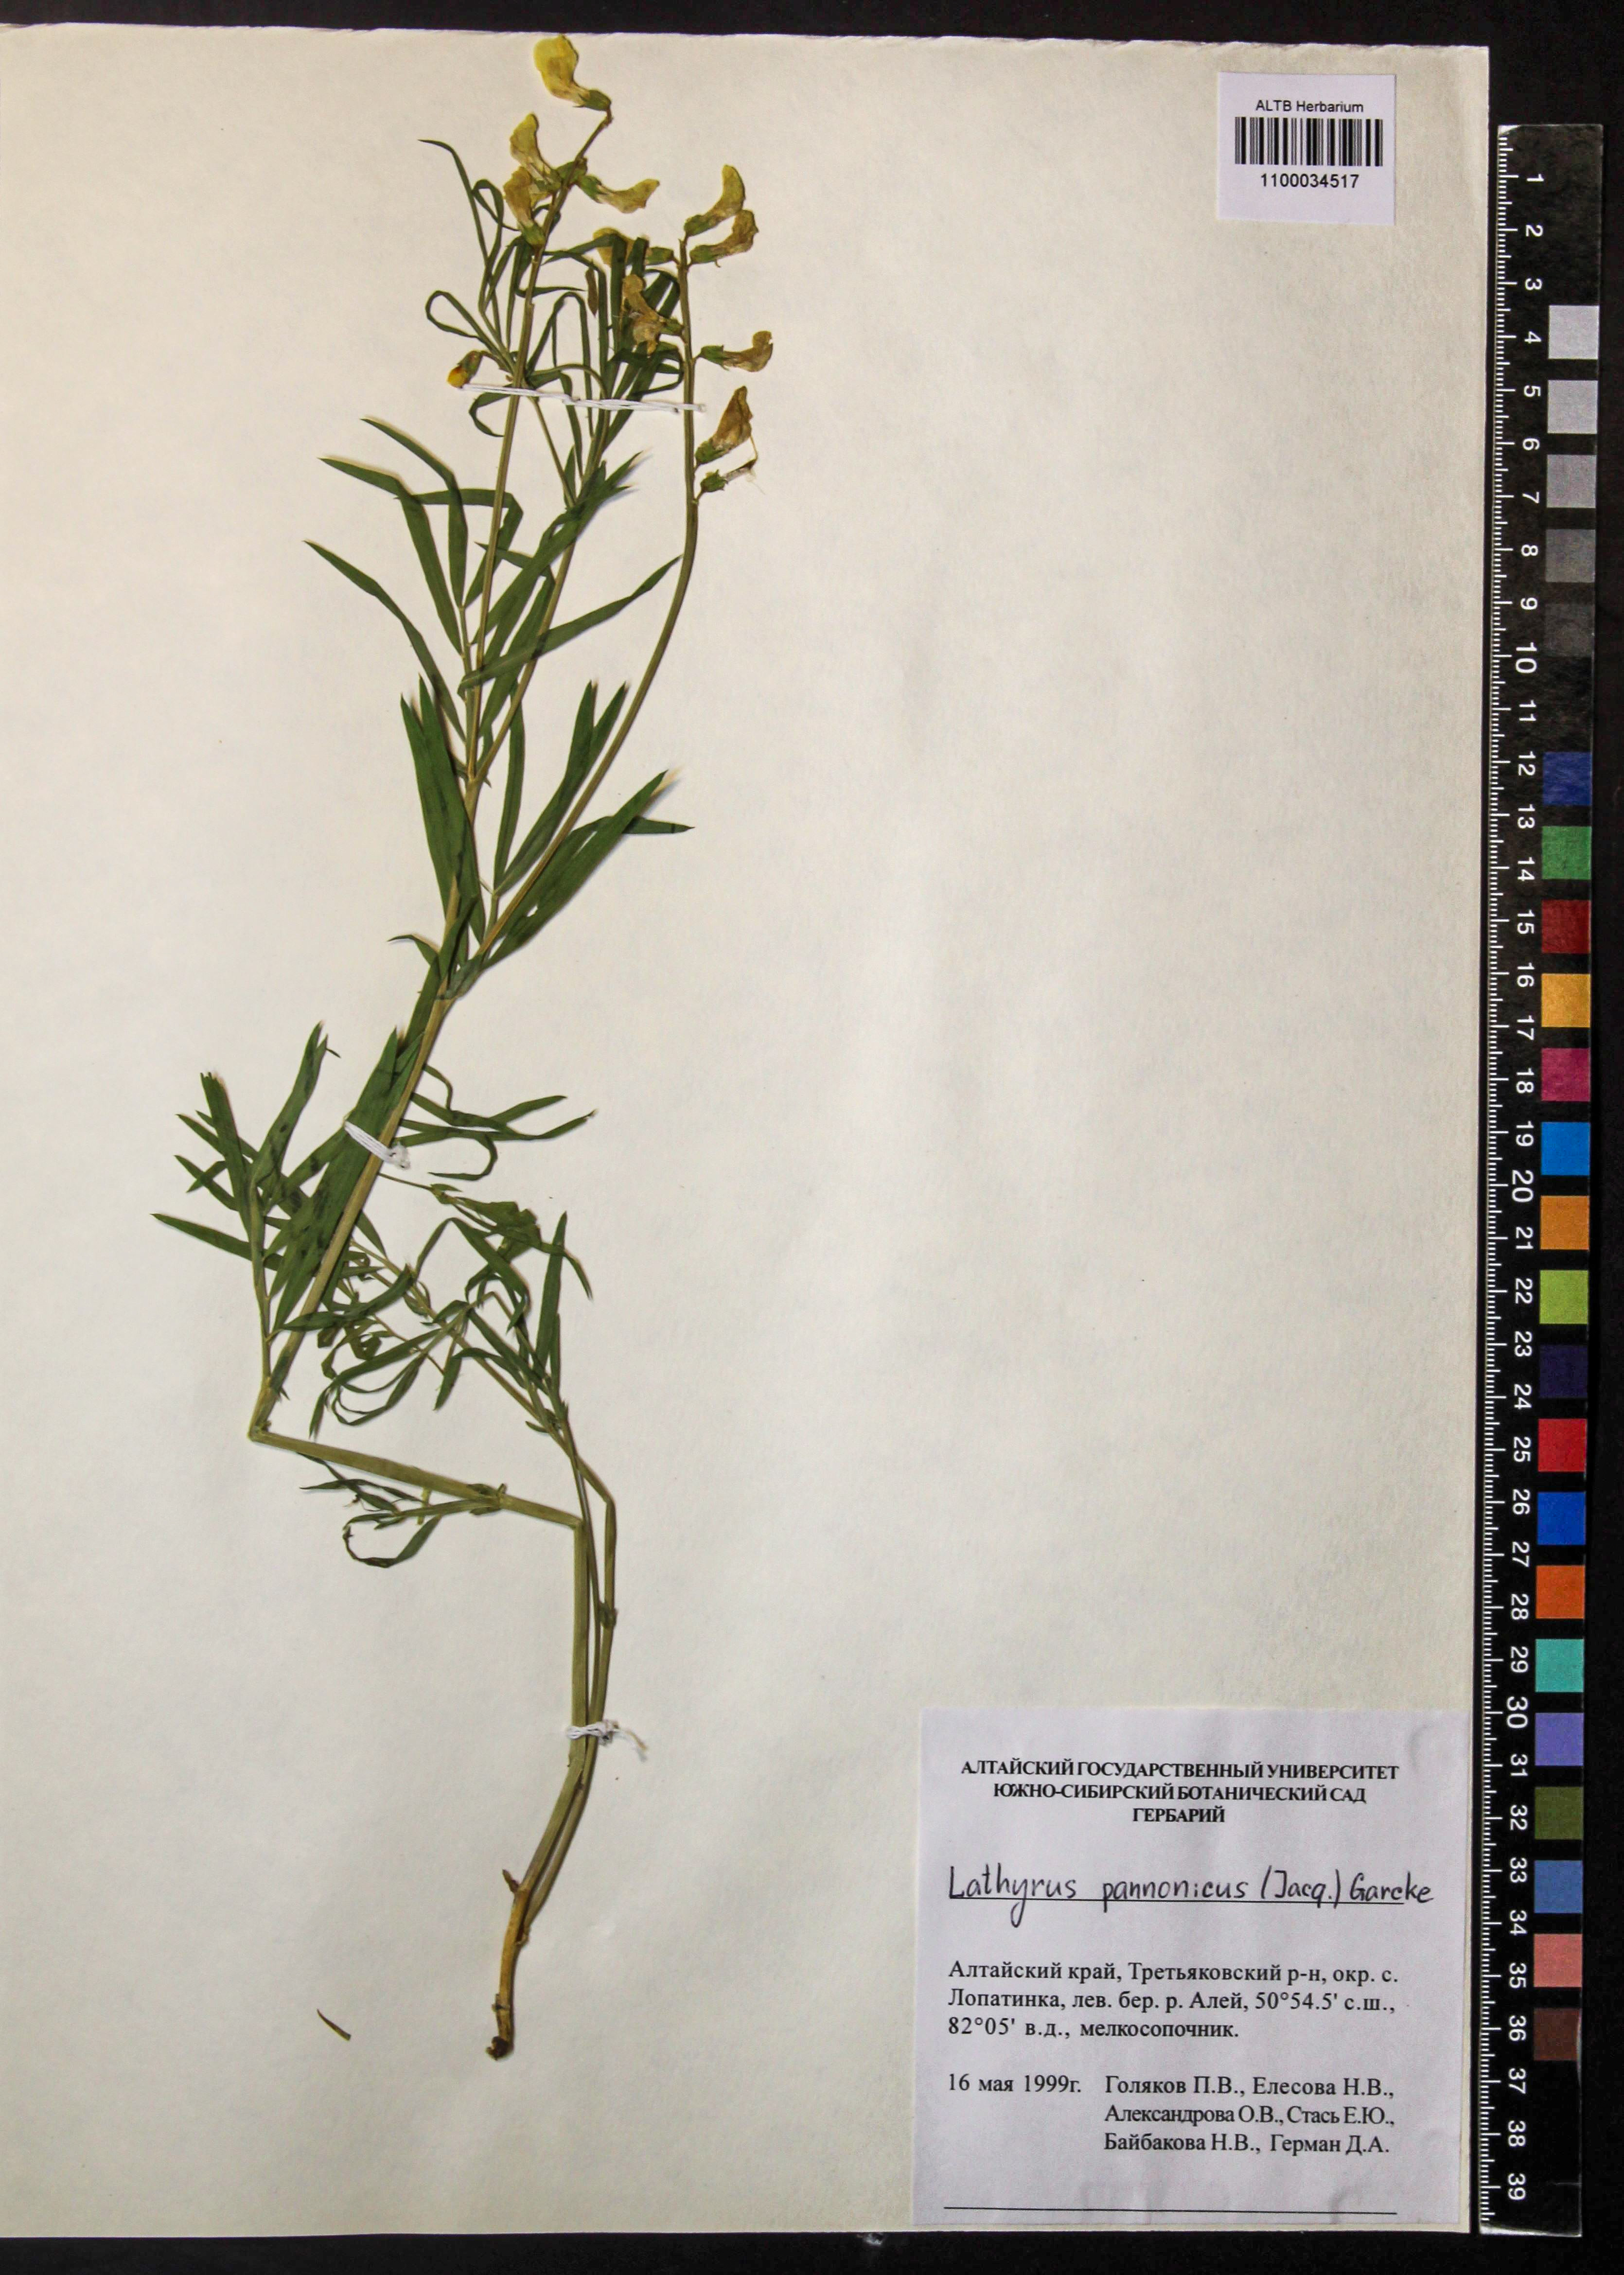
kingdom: Plantae
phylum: Tracheophyta
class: Magnoliopsida
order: Fabales
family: Fabaceae
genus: Lathyrus
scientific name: Lathyrus pannonicus
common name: Pea
